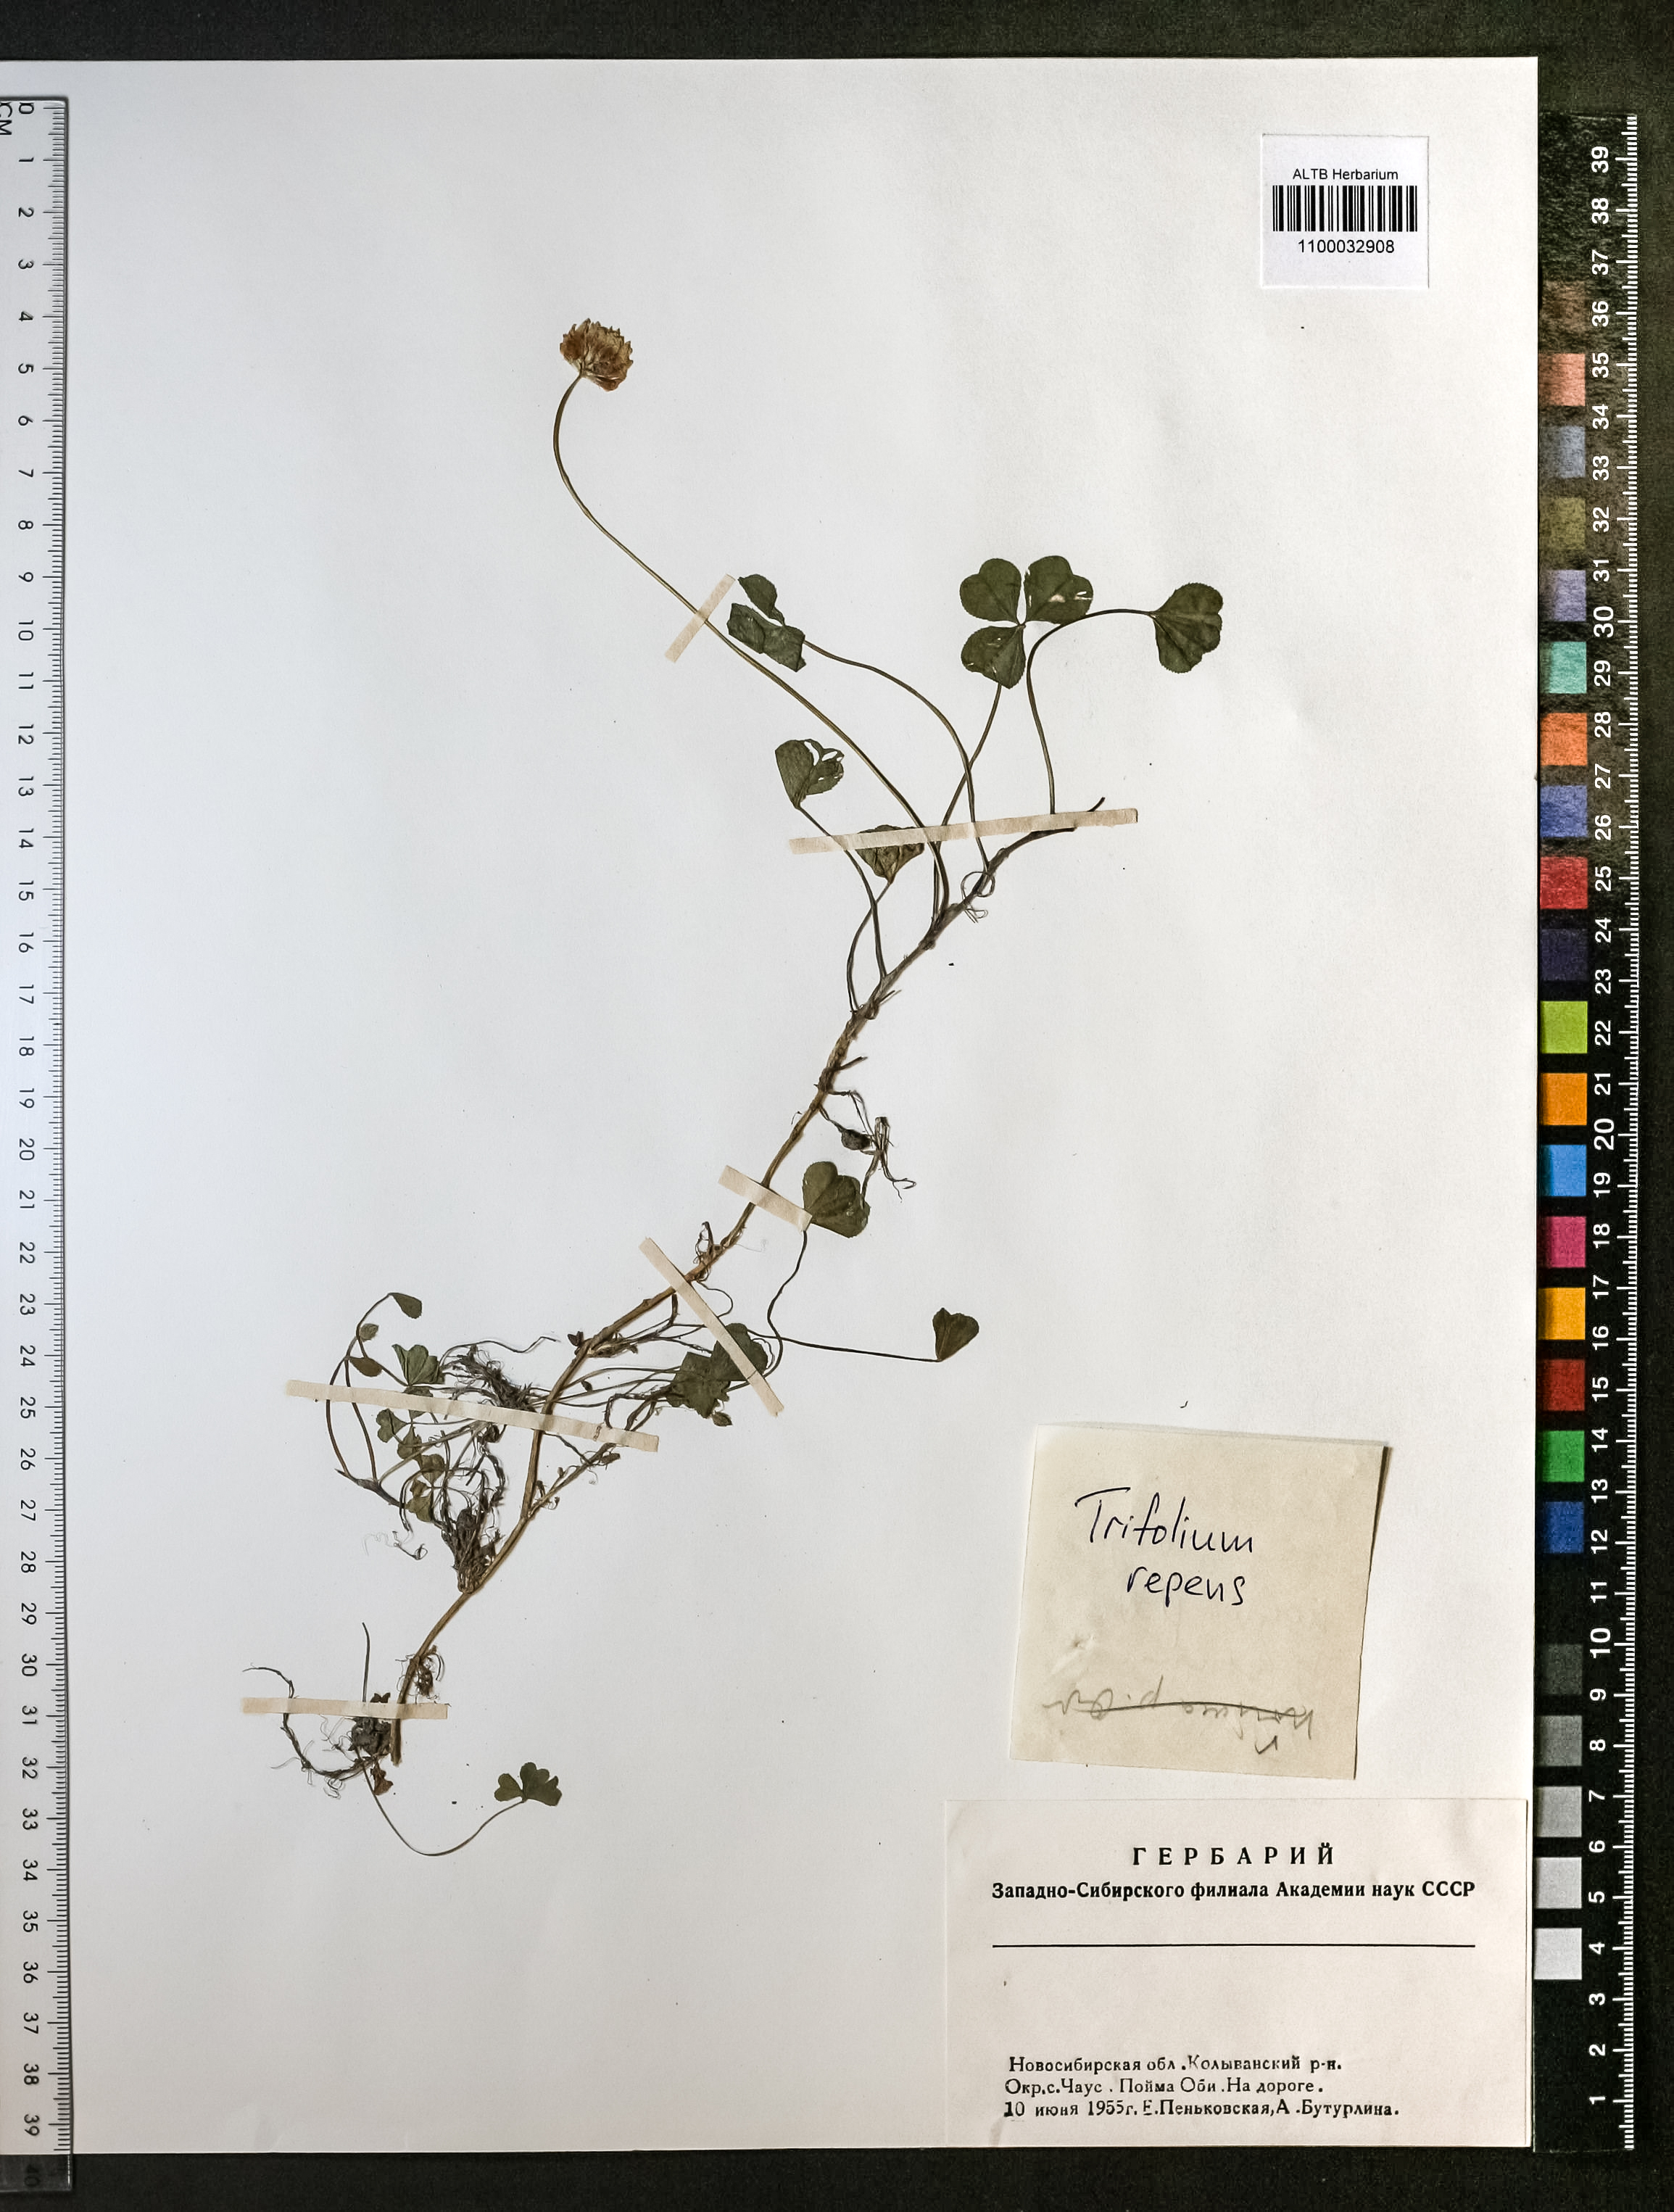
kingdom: Plantae
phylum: Tracheophyta
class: Magnoliopsida
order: Fabales
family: Fabaceae
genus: Trifolium
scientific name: Trifolium repens
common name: White clover
